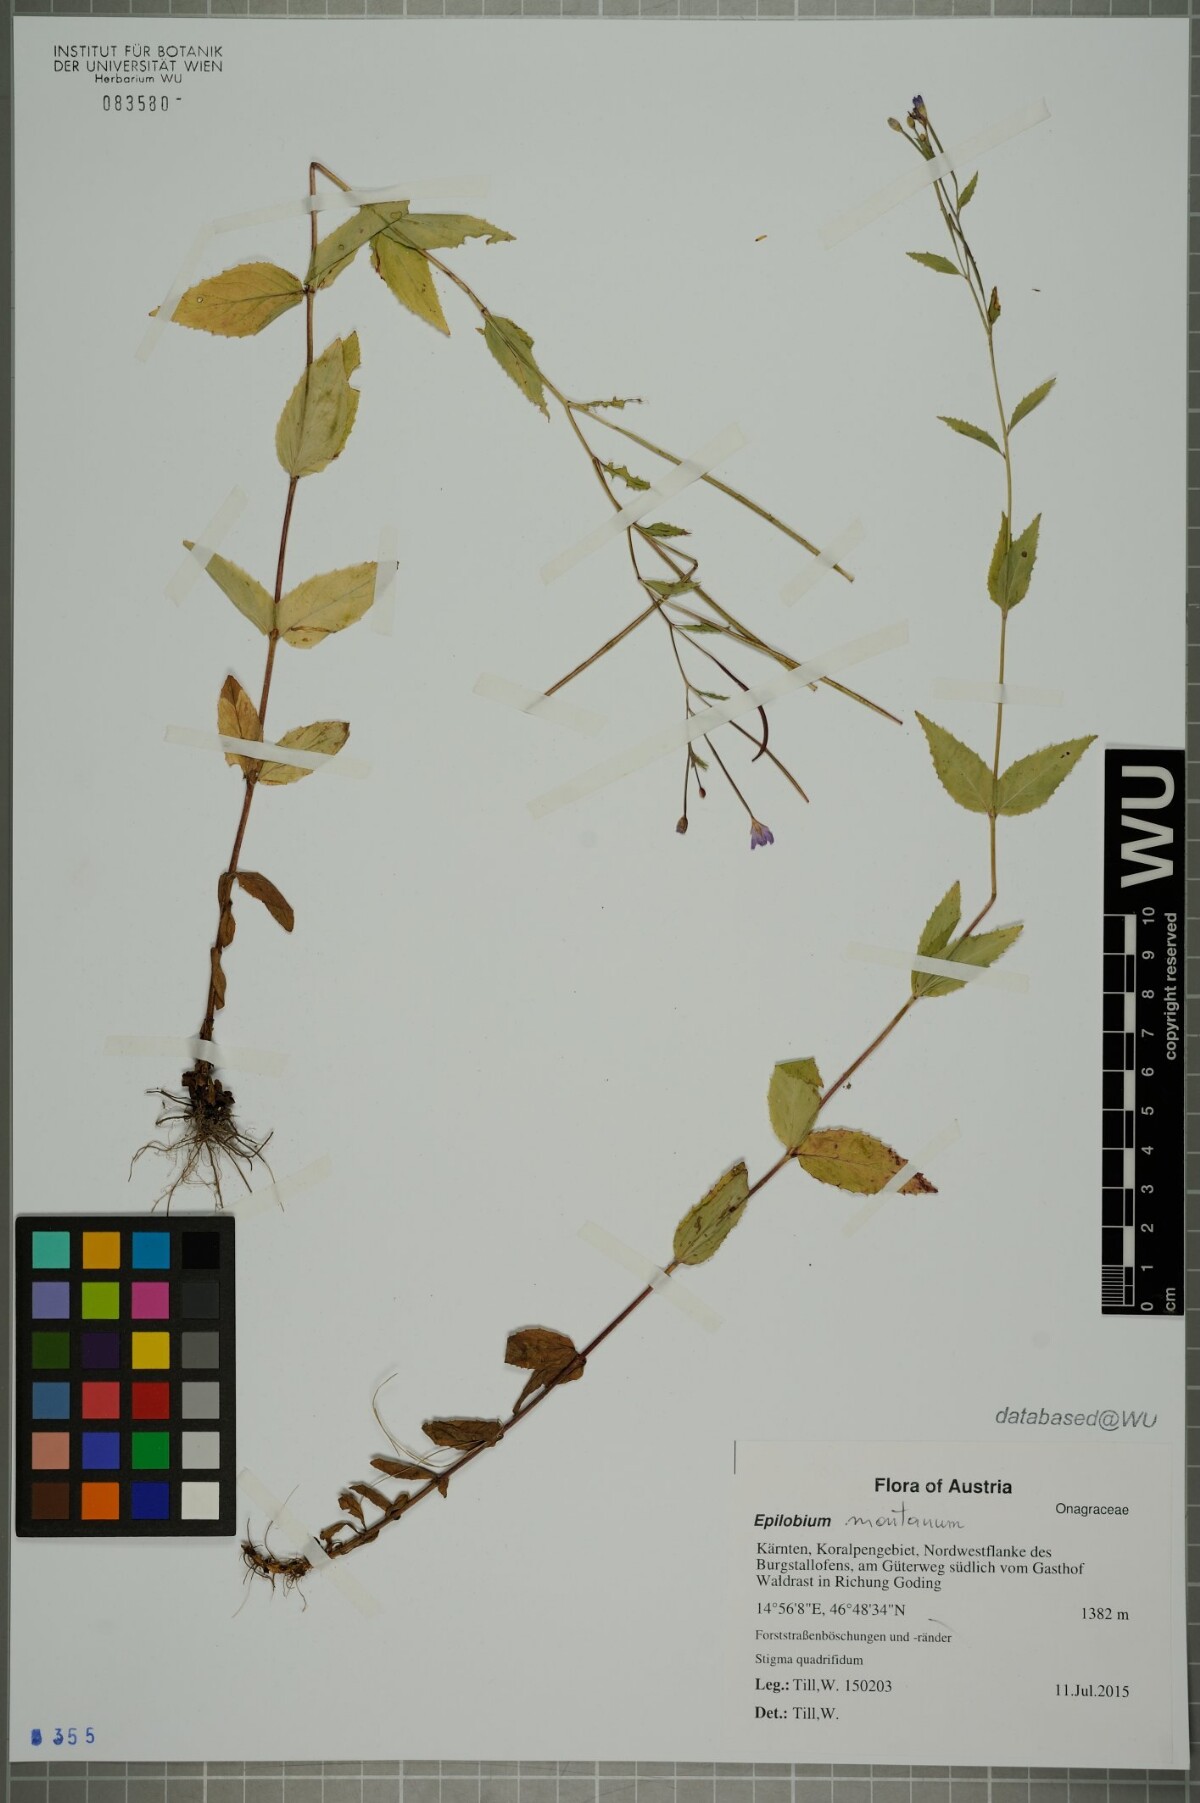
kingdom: Plantae
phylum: Tracheophyta
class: Magnoliopsida
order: Myrtales
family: Onagraceae
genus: Epilobium
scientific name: Epilobium montanum
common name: Broad-leaved willowherb
